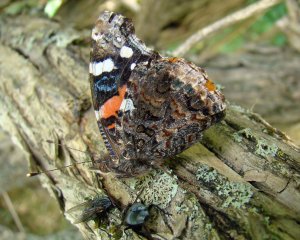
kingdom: Animalia
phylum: Arthropoda
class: Insecta
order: Lepidoptera
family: Nymphalidae
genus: Vanessa
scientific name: Vanessa atalanta
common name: Red Admiral
